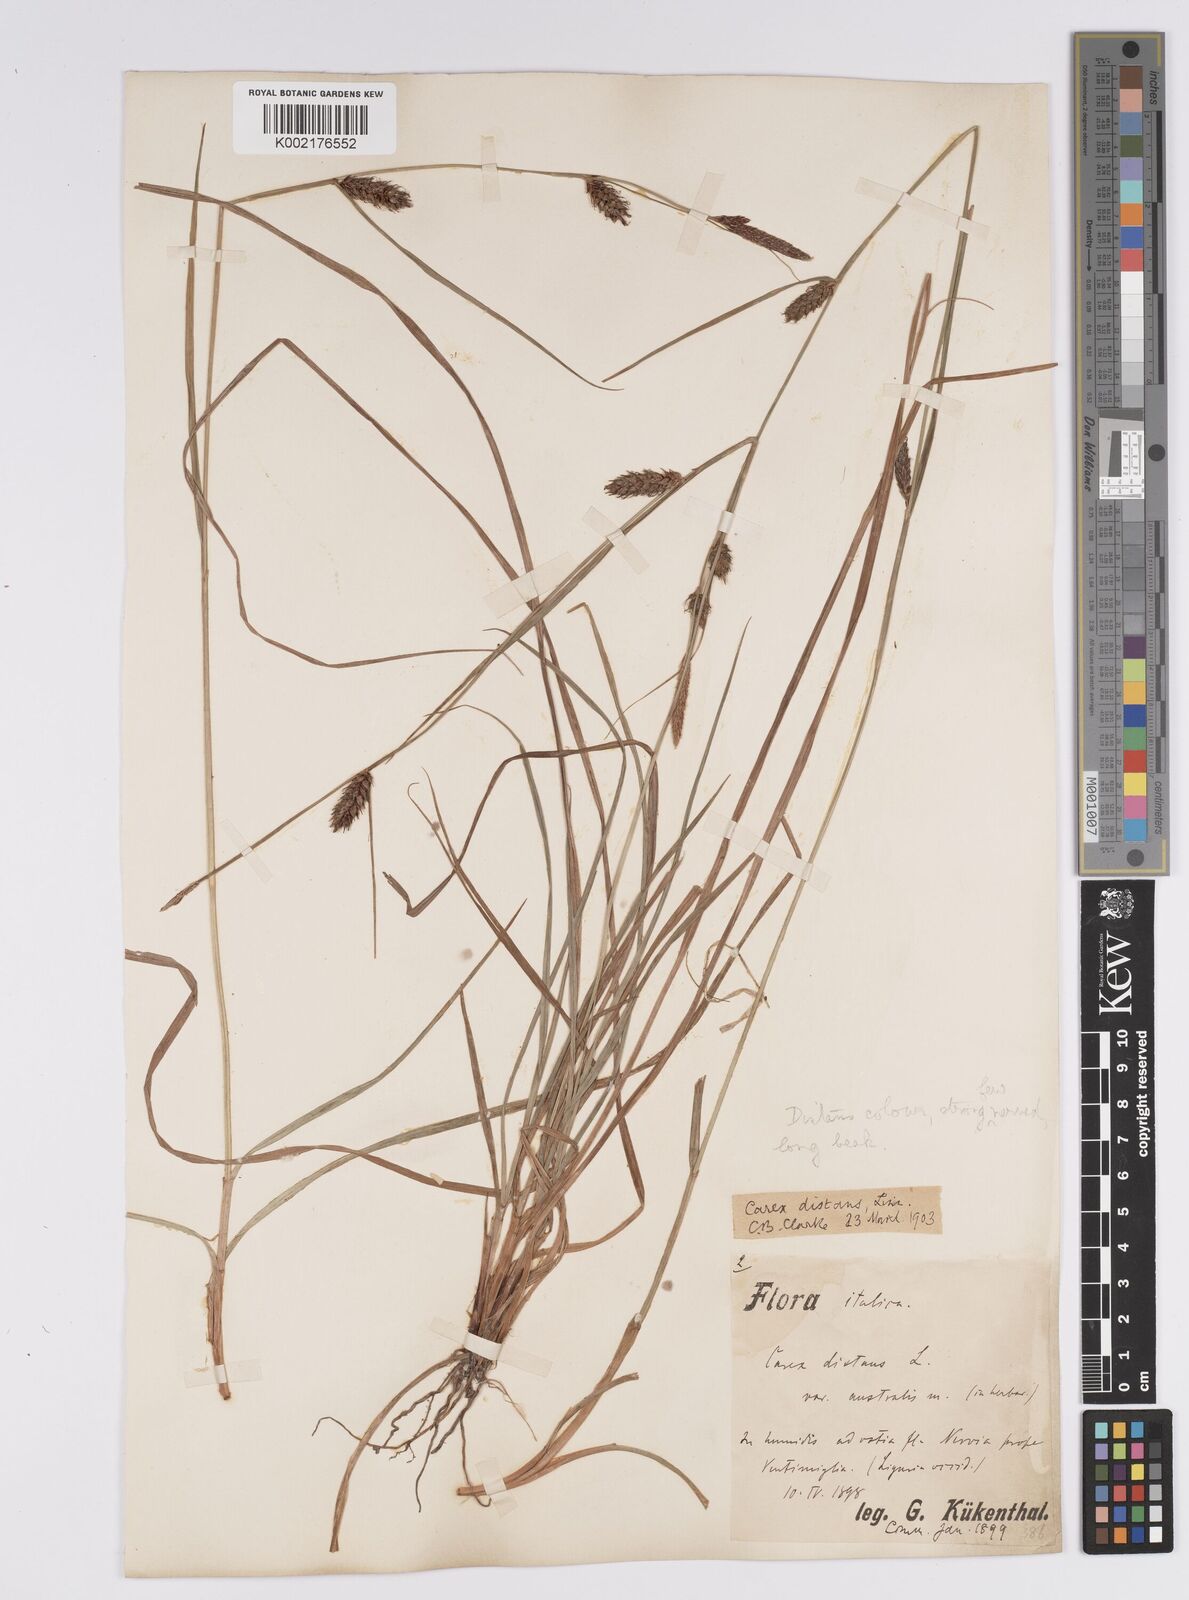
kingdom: Plantae
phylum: Tracheophyta
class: Liliopsida
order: Poales
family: Cyperaceae
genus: Carex
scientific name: Carex distans
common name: Distant sedge
